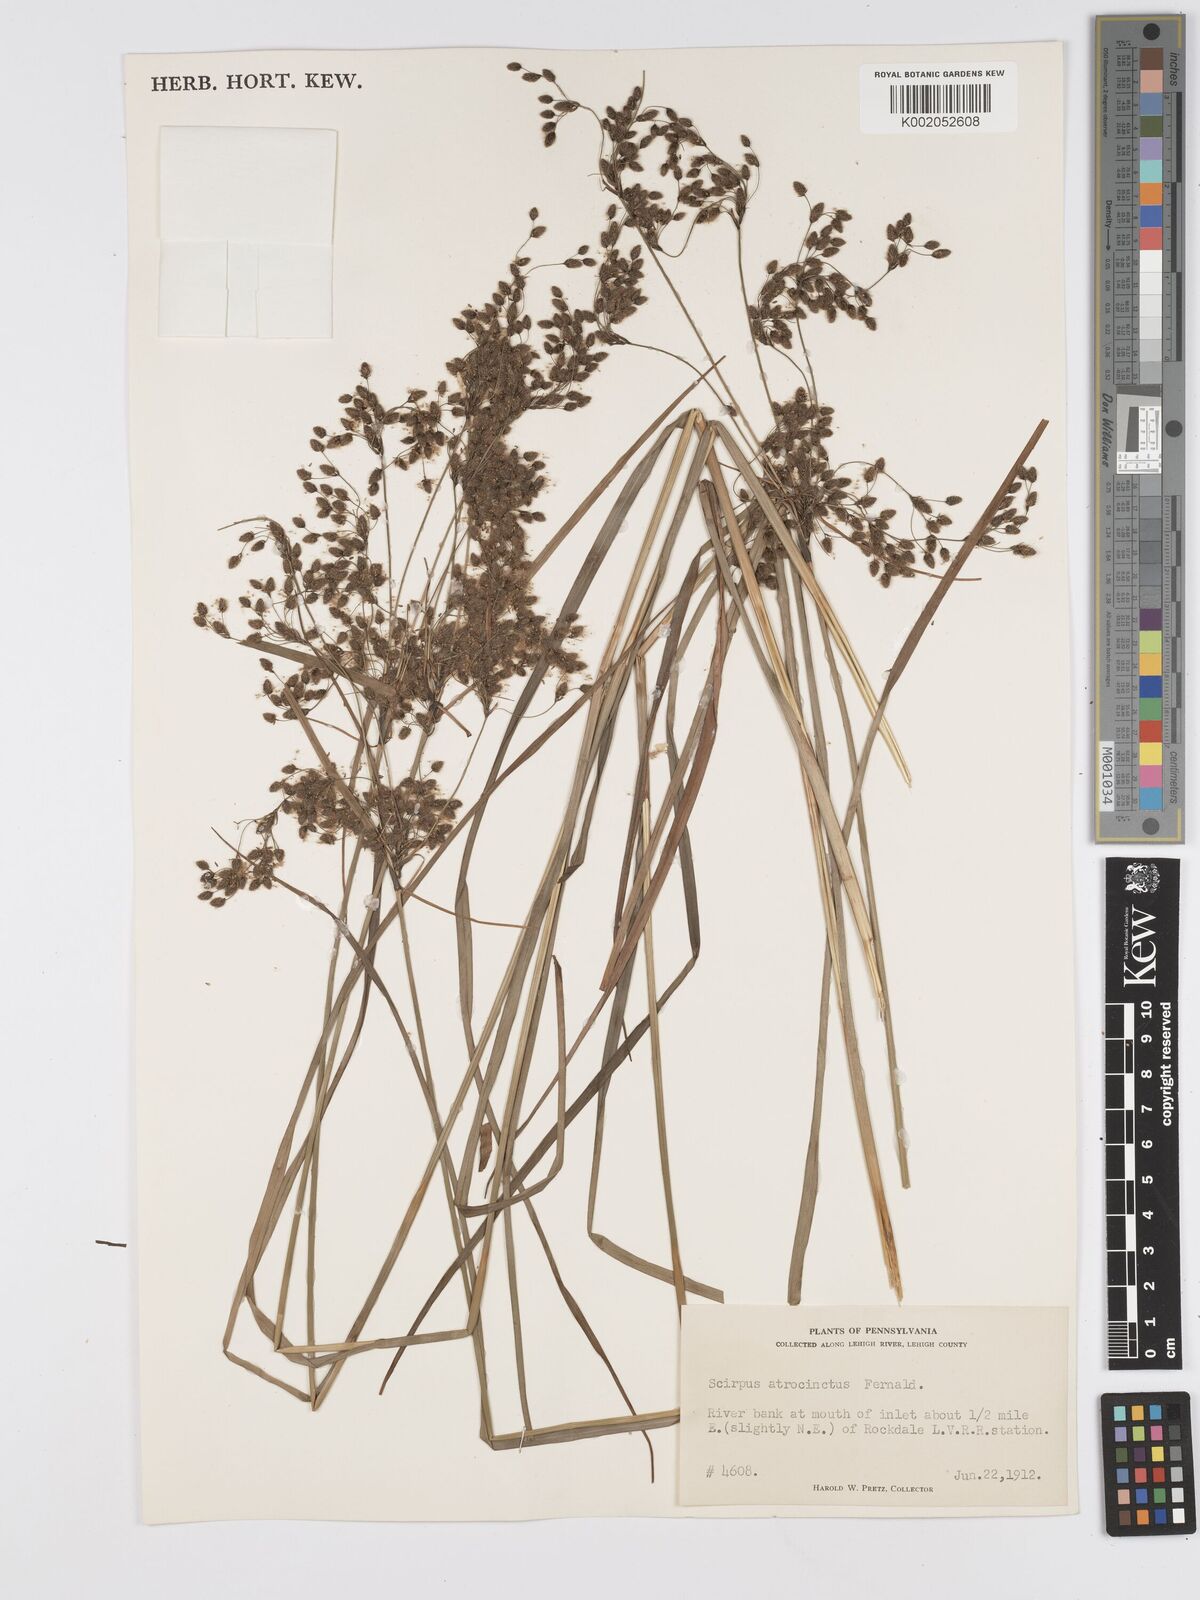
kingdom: Plantae
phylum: Tracheophyta
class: Liliopsida
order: Poales
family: Cyperaceae
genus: Scirpus
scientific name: Scirpus atrocinctus
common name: Black-girdled bulrush
